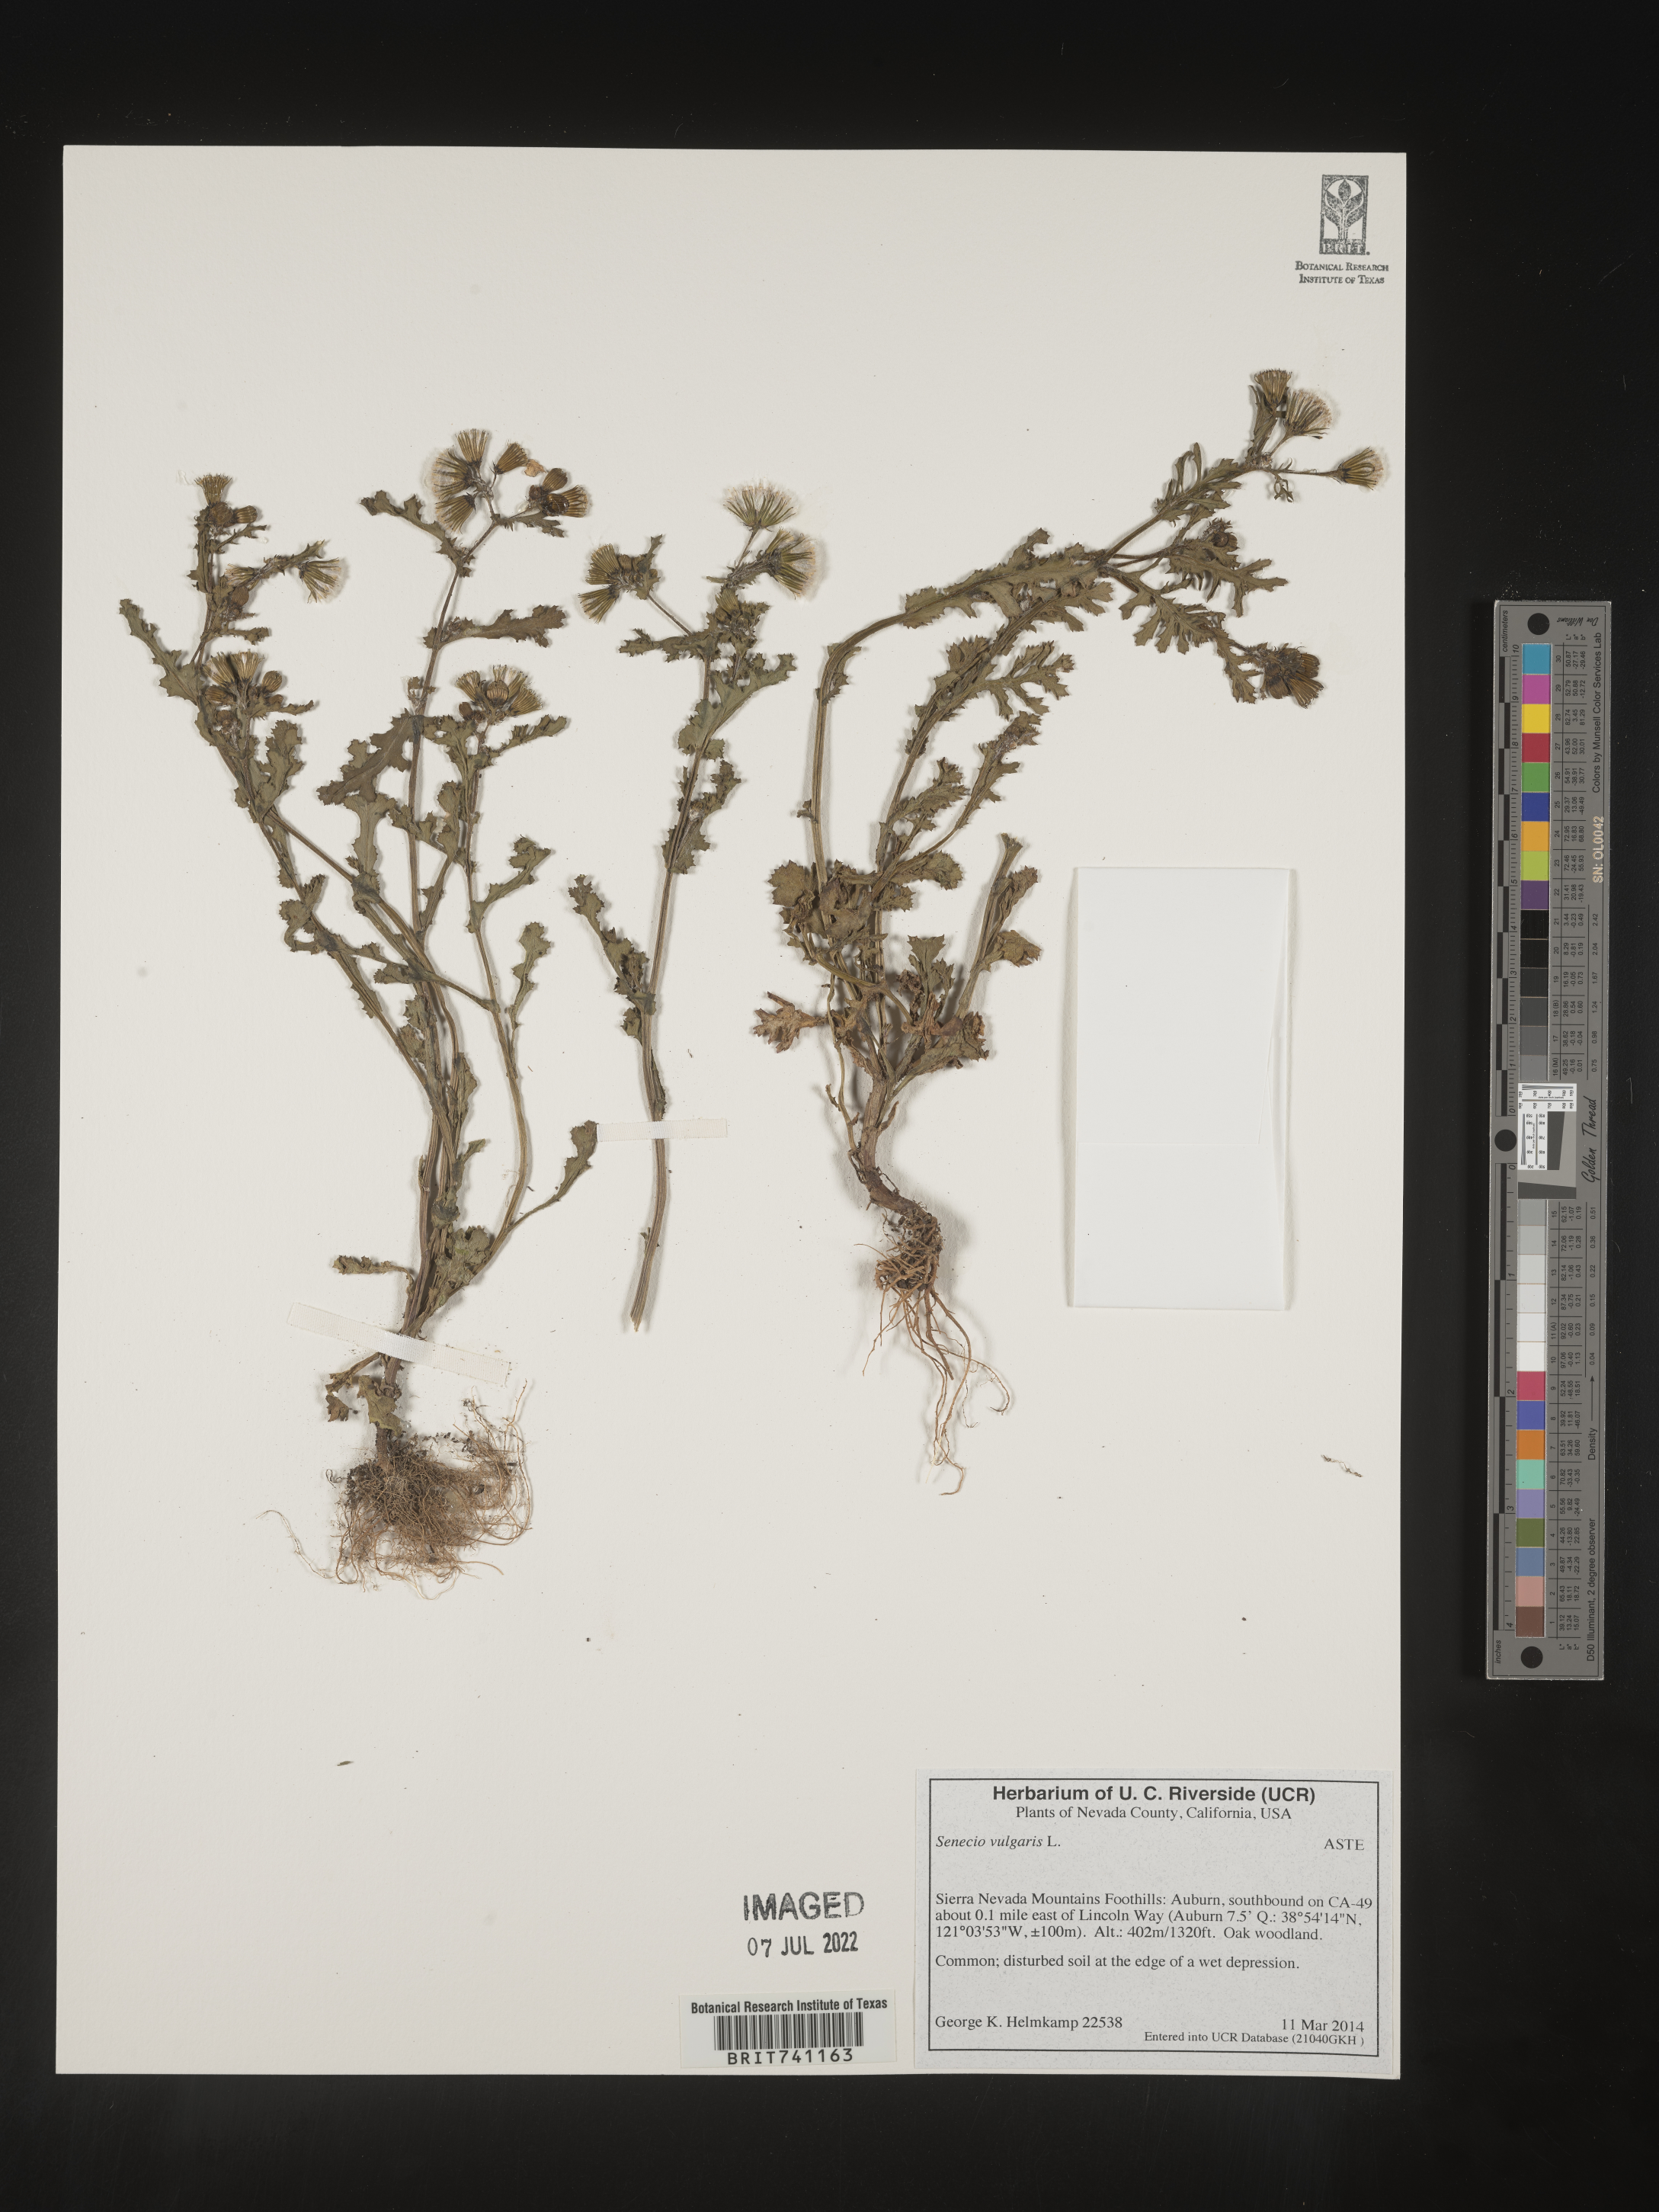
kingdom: Plantae
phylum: Tracheophyta
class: Magnoliopsida
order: Asterales
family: Asteraceae
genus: Senecio
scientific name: Senecio vulgaris
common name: Old-man-in-the-spring
